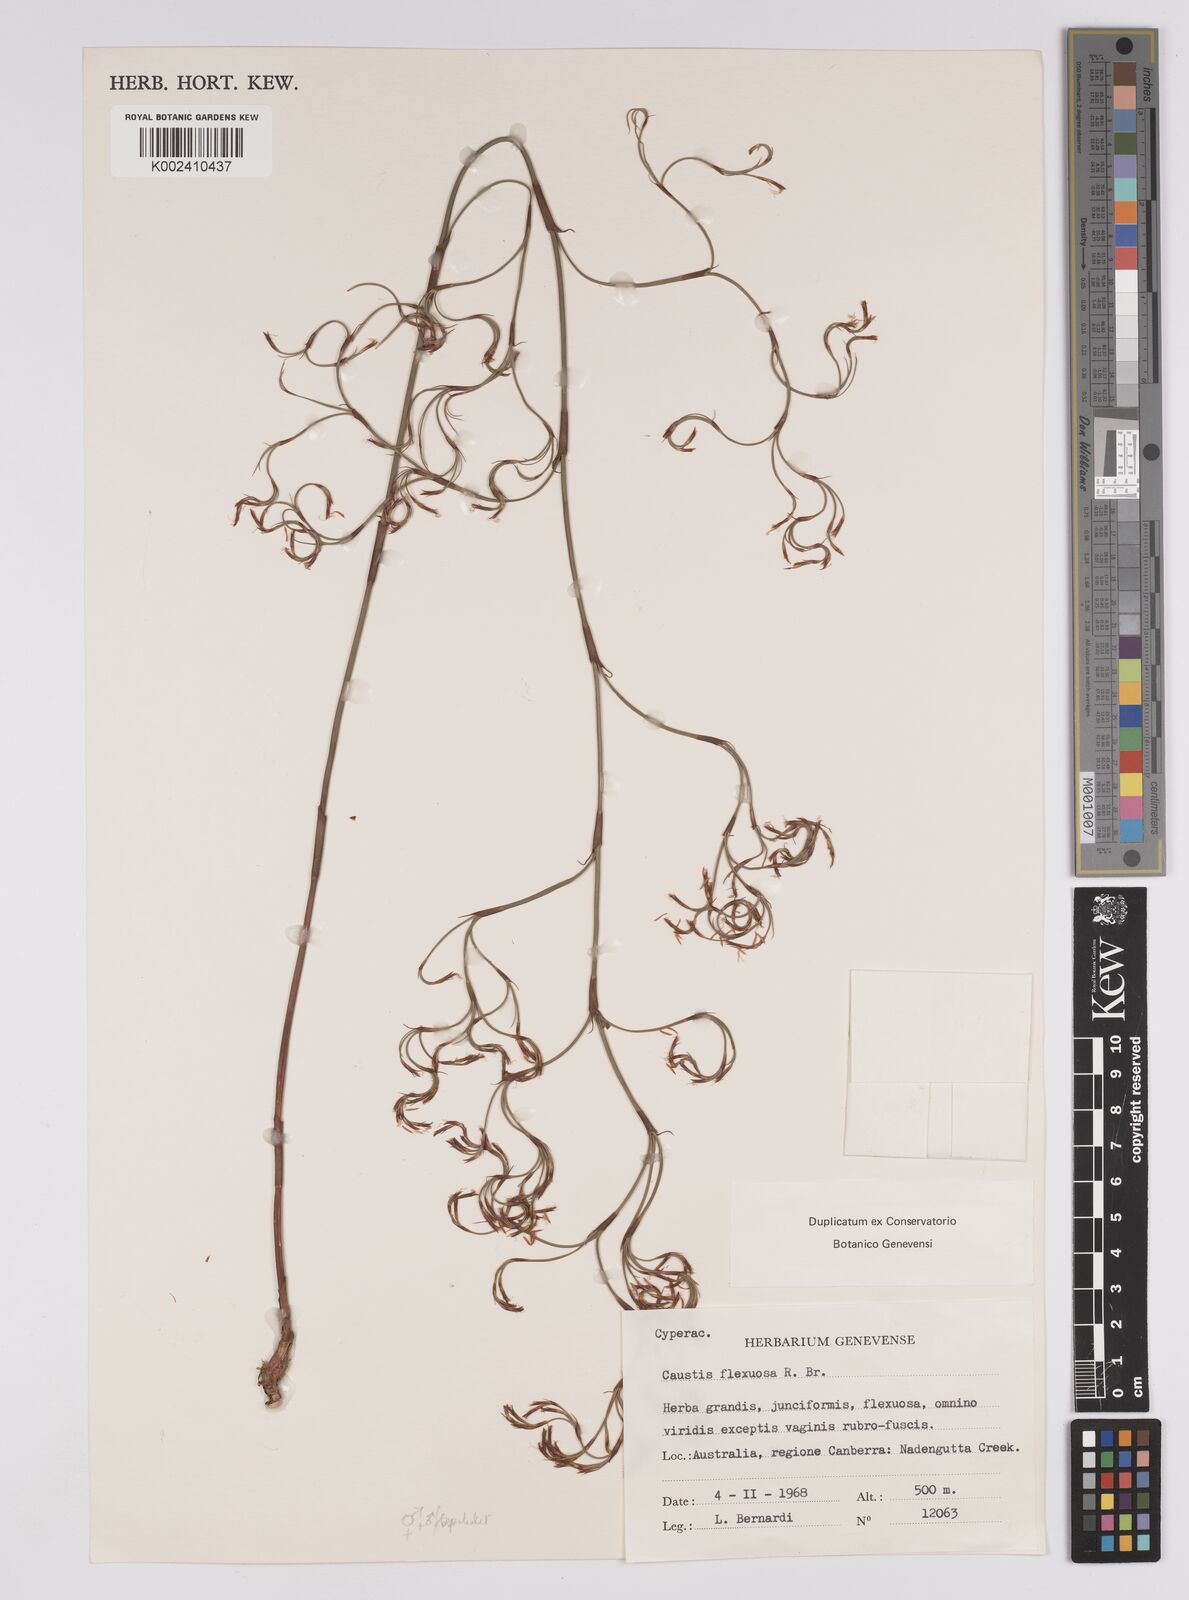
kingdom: Plantae
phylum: Tracheophyta
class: Liliopsida
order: Poales
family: Cyperaceae
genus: Caustis
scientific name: Caustis flexuosa
